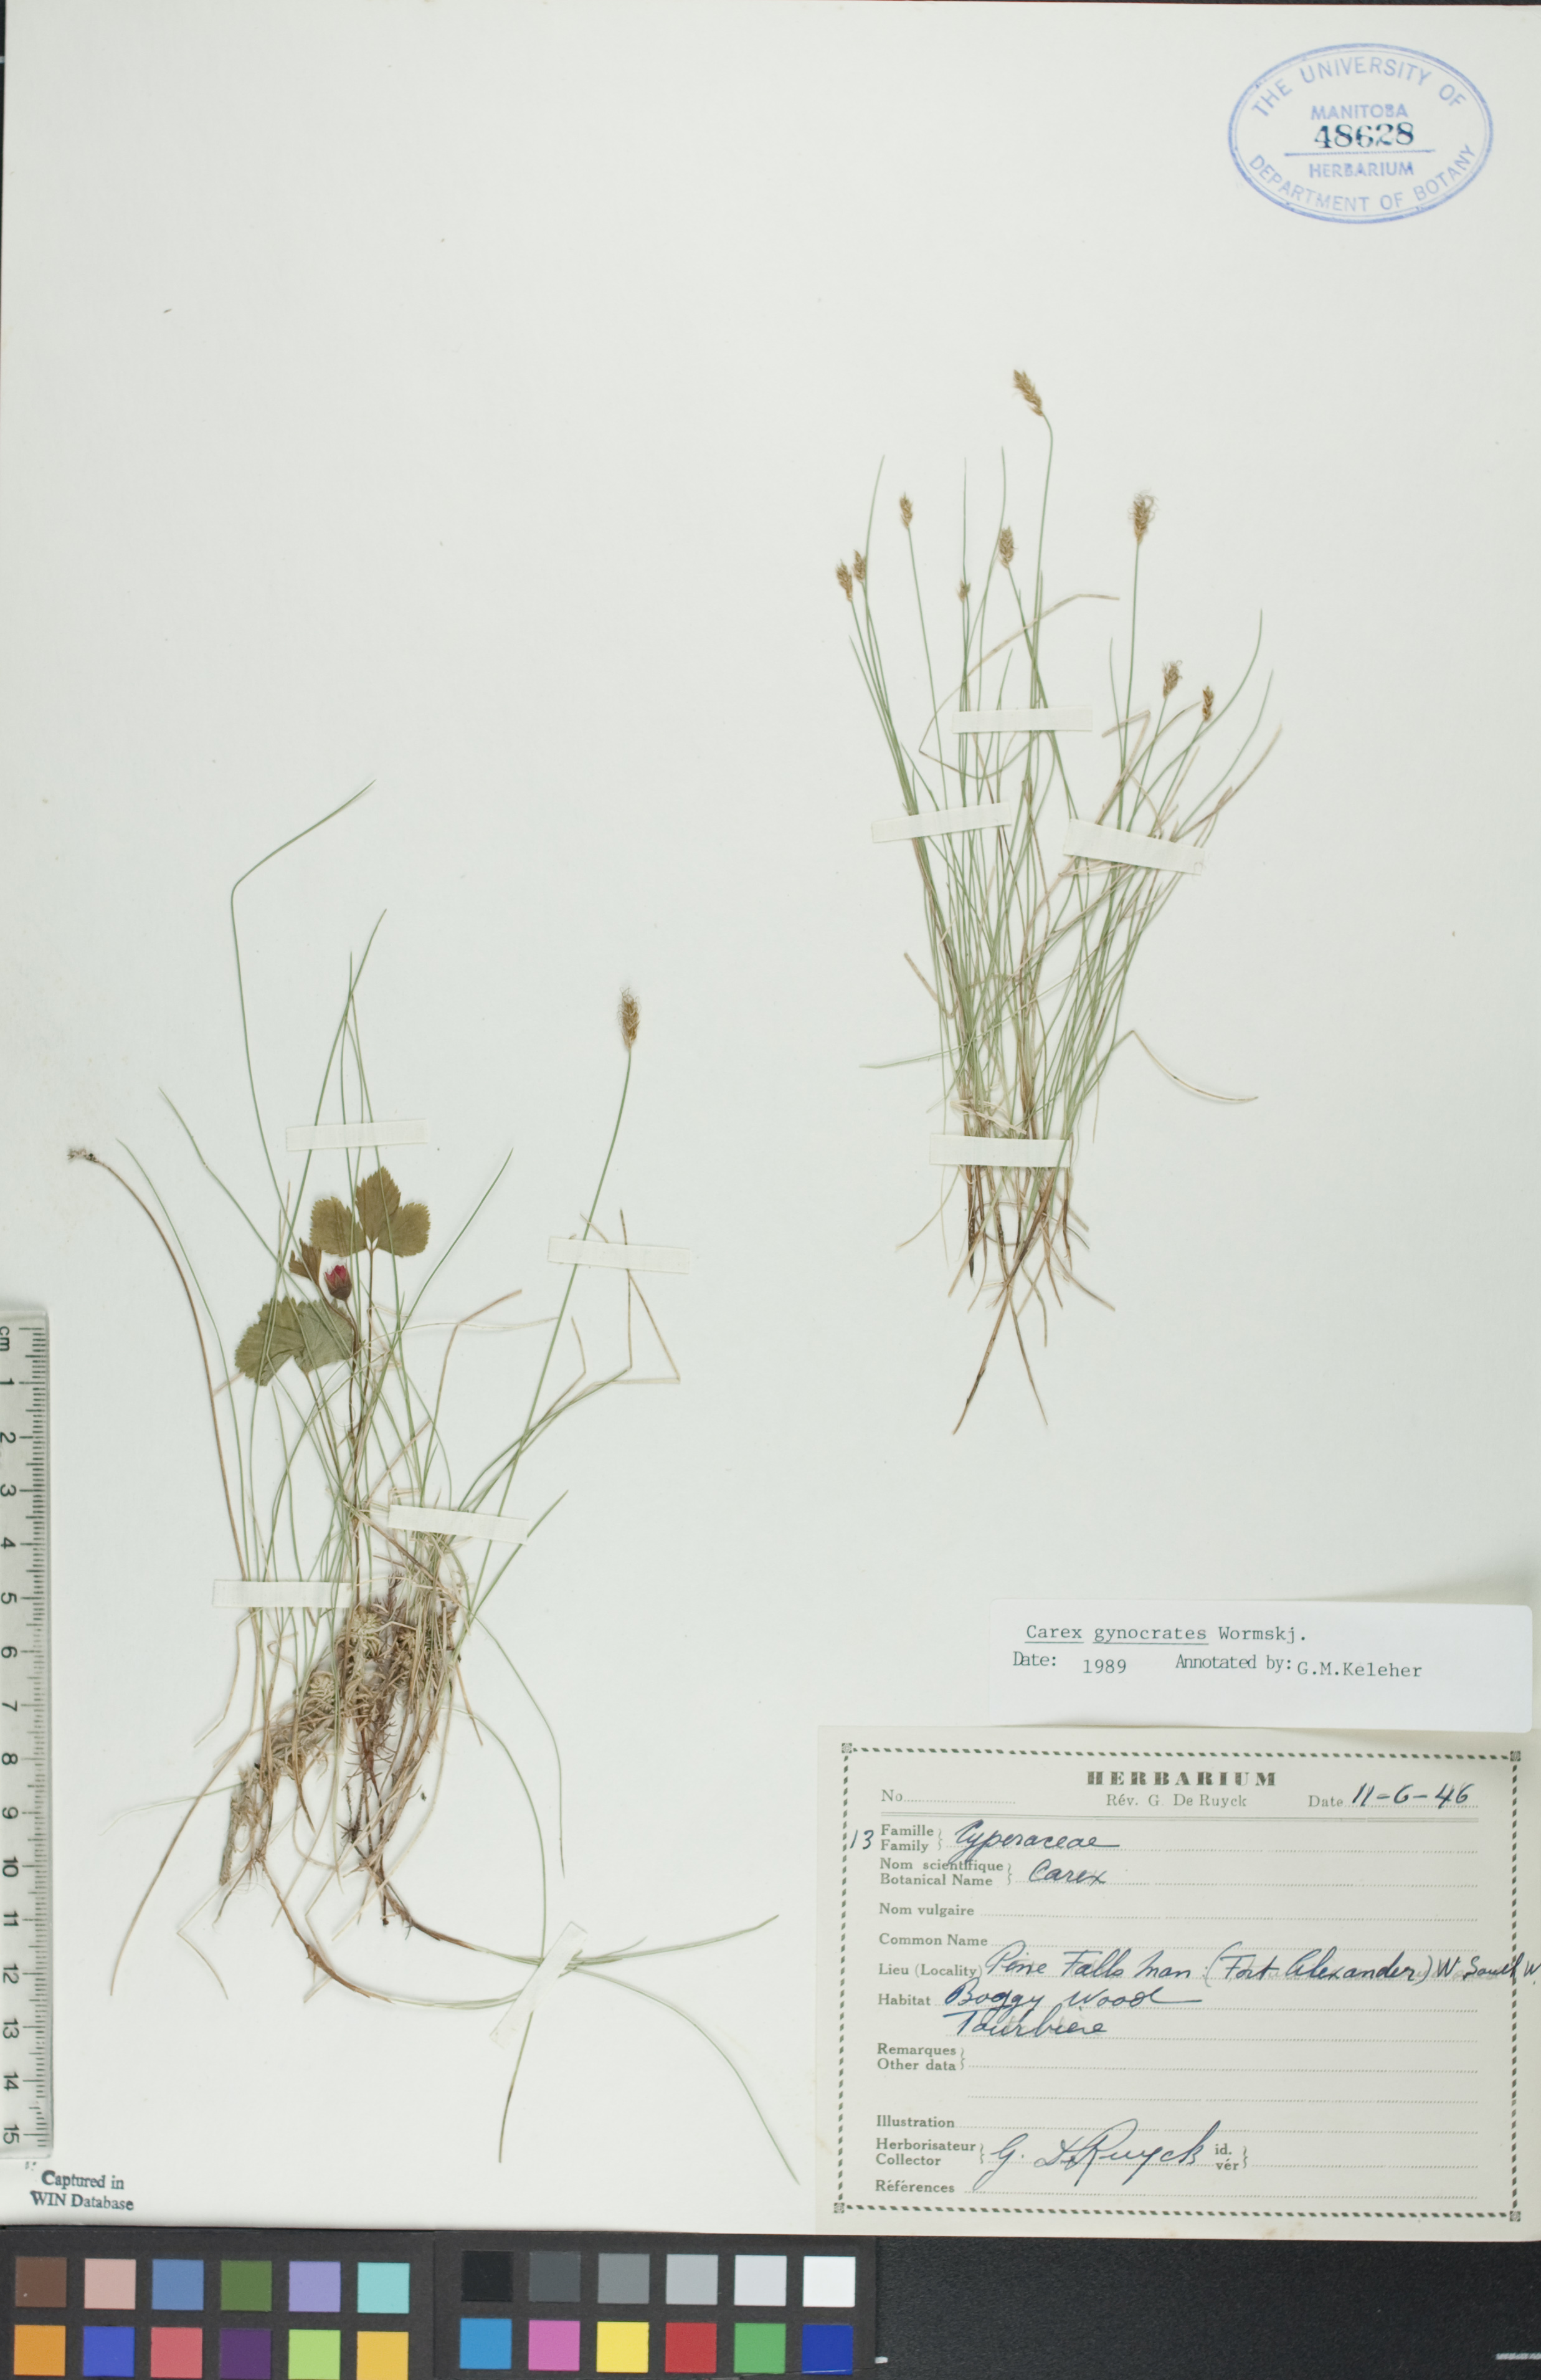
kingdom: Plantae
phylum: Tracheophyta
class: Liliopsida
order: Poales
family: Cyperaceae
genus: Carex
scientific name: Carex nardina
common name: Nard sedge
